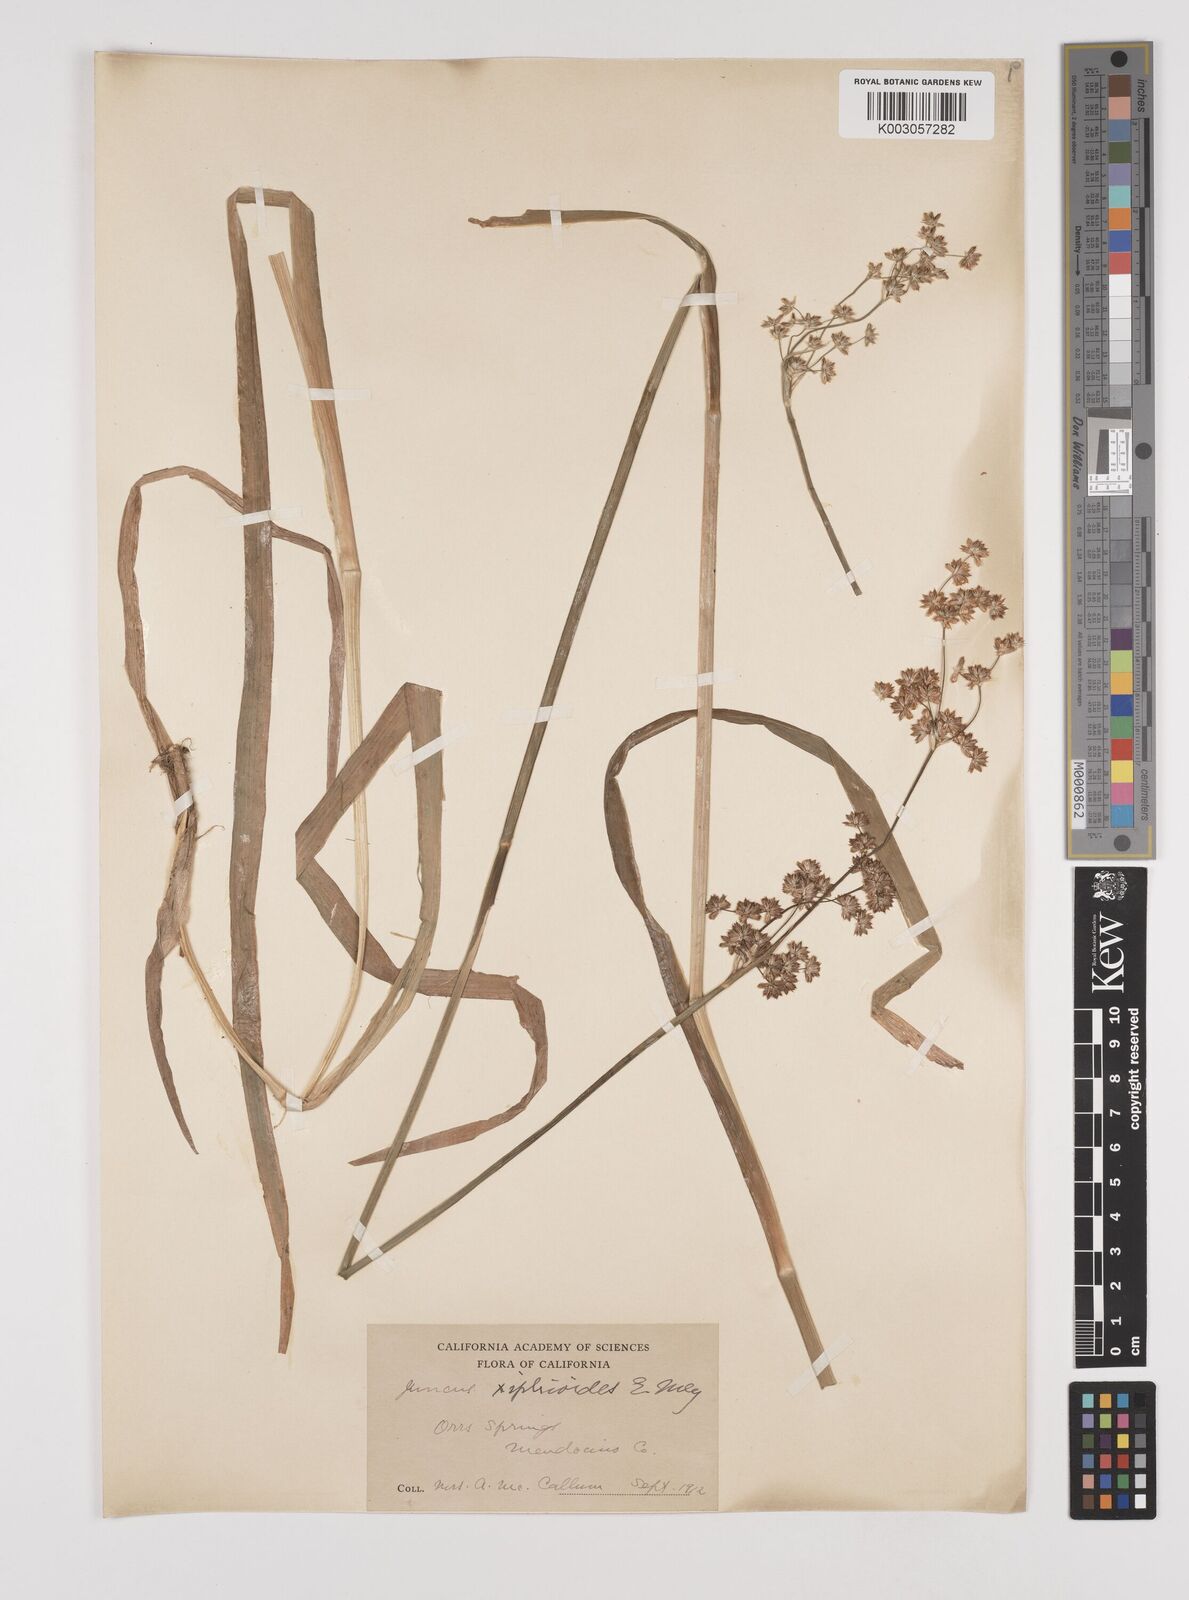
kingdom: Plantae
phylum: Tracheophyta
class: Liliopsida
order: Poales
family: Juncaceae
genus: Juncus
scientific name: Juncus xiphioides
